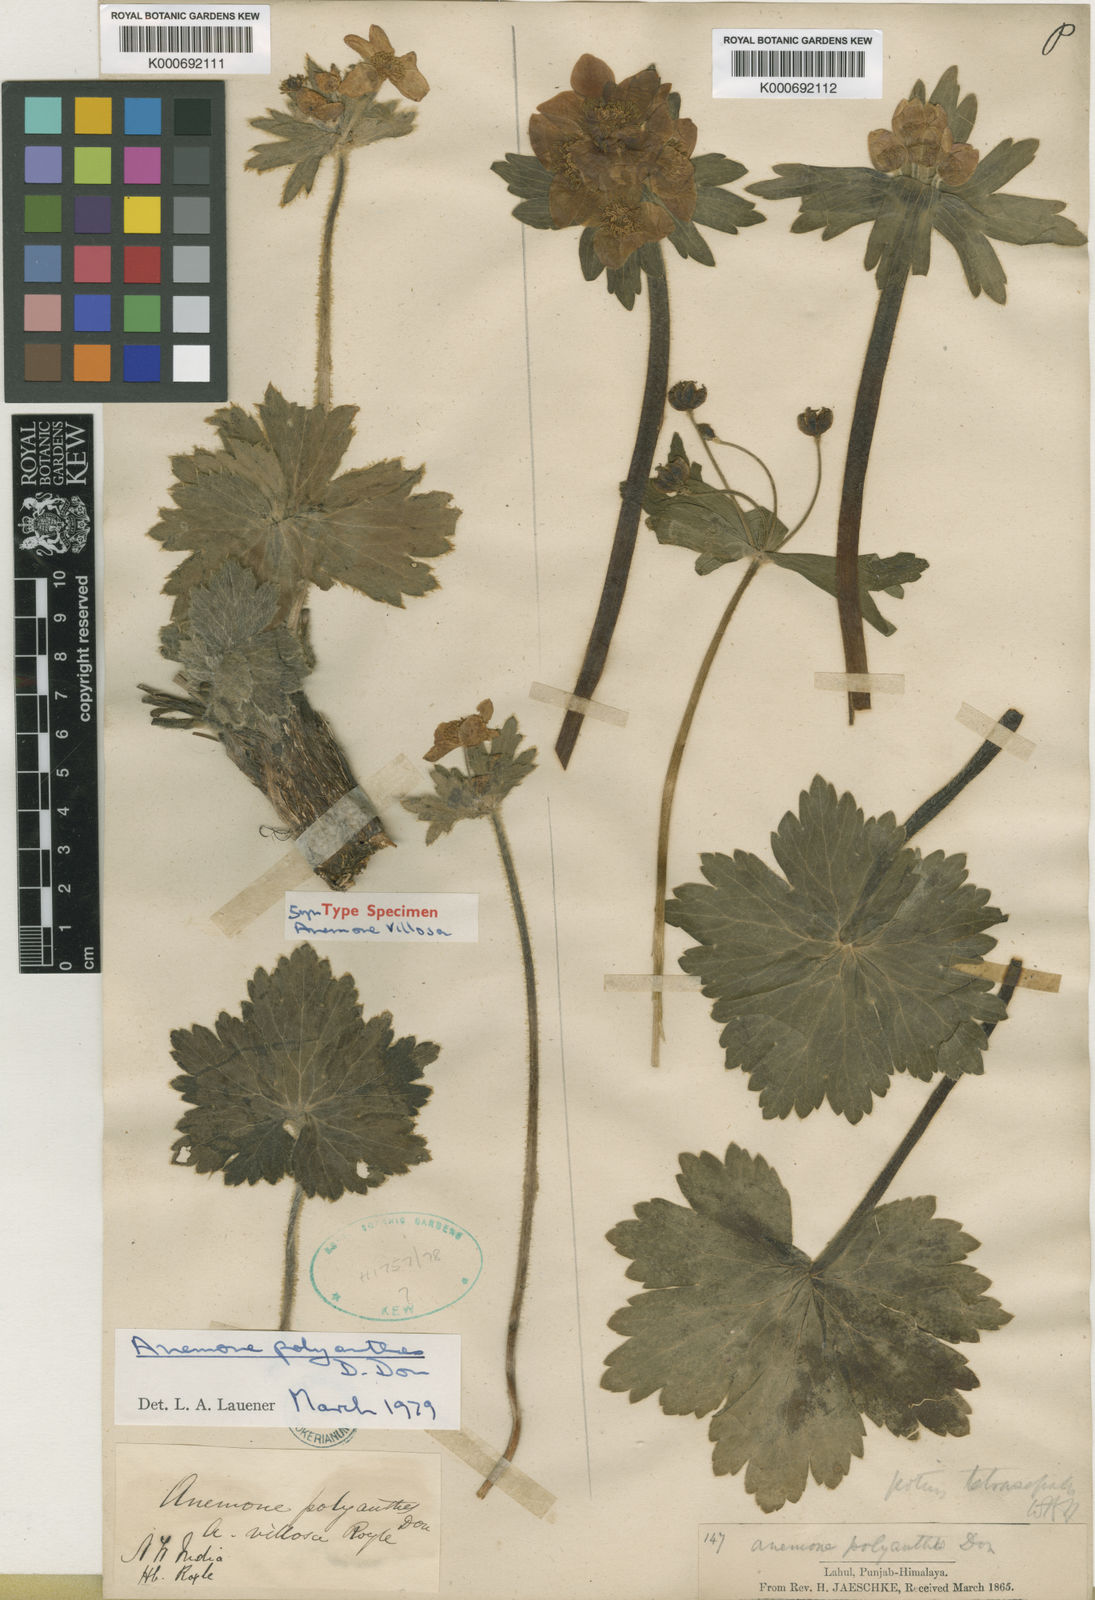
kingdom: Plantae
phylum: Tracheophyta
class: Magnoliopsida
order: Ranunculales
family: Ranunculaceae
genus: Anemonastrum
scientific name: Anemonastrum polyanthes
